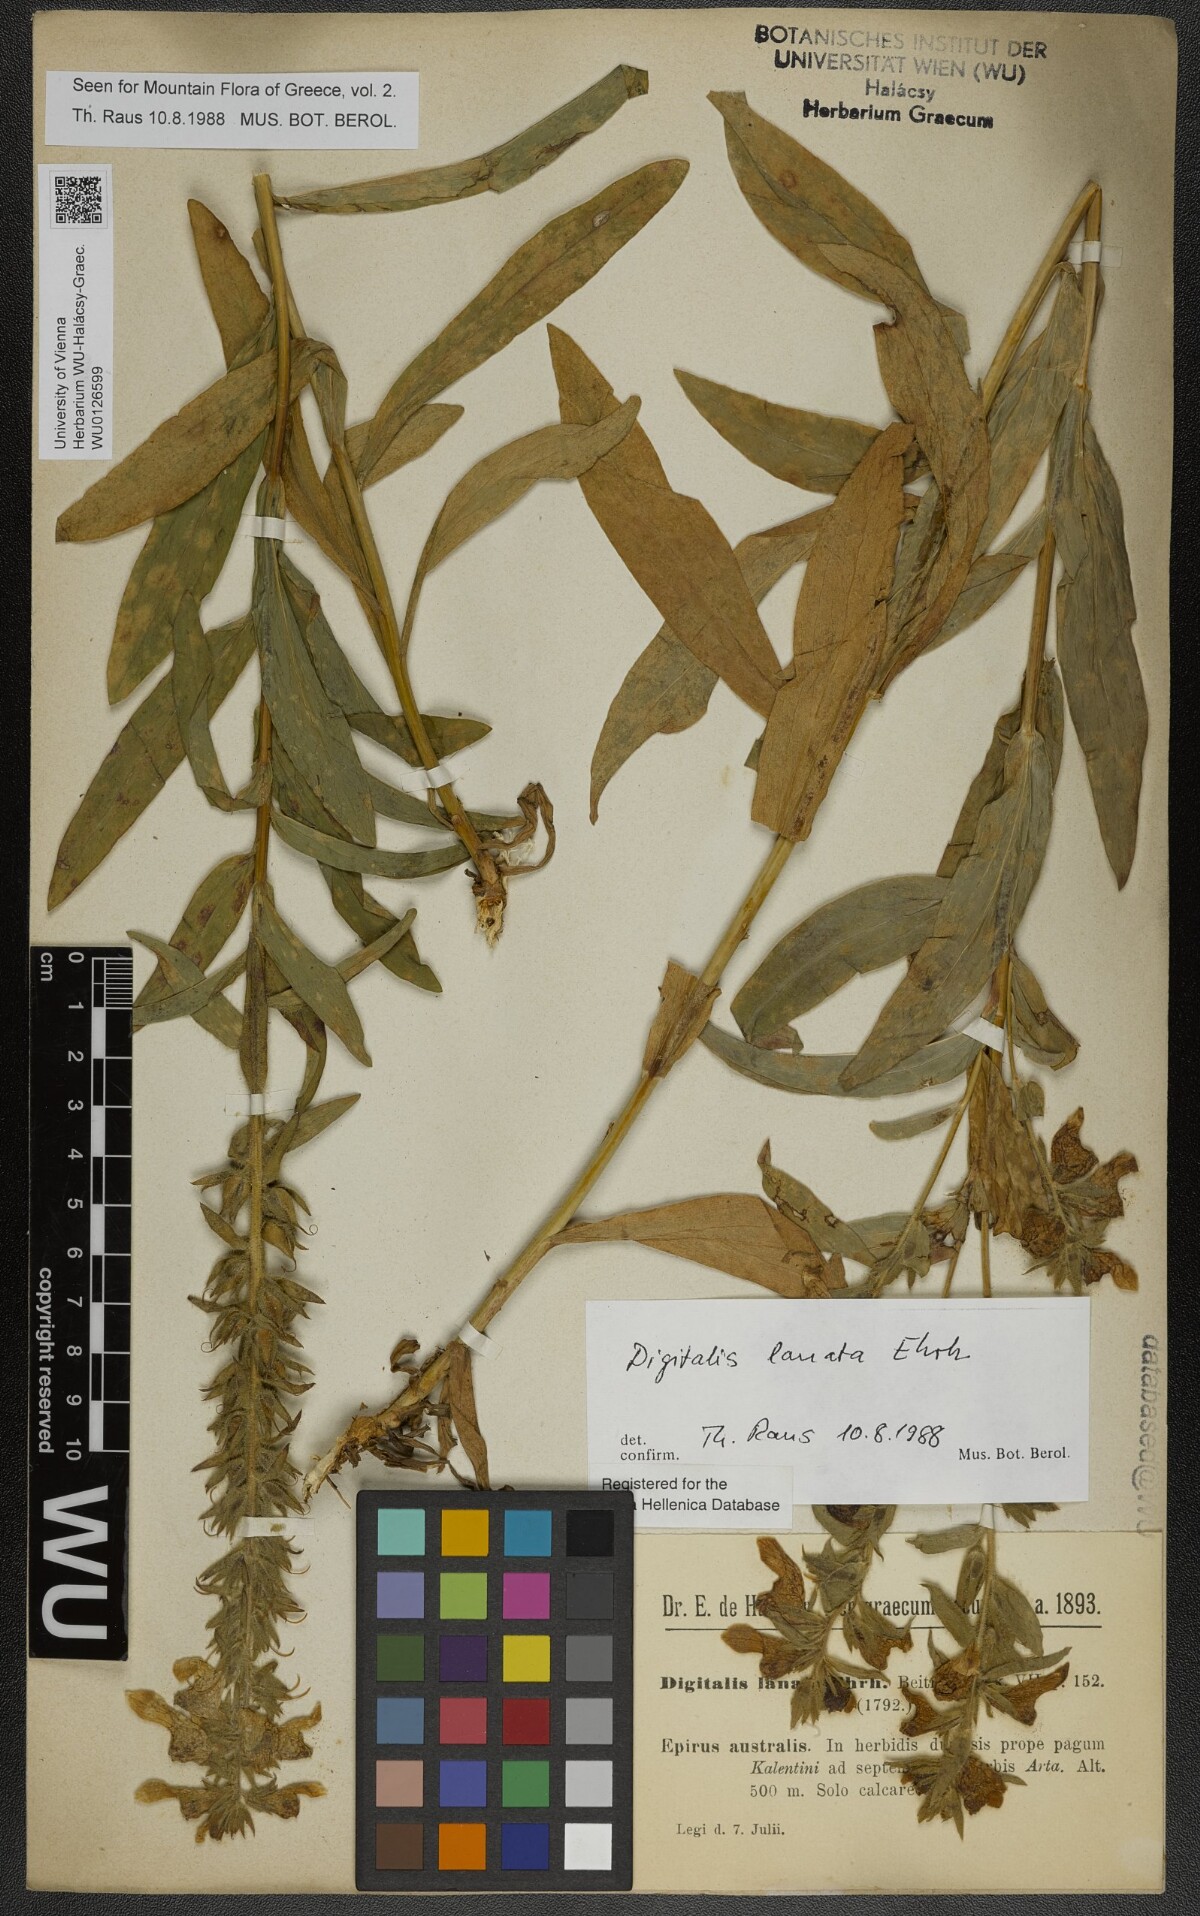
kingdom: Plantae
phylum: Tracheophyta
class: Magnoliopsida
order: Lamiales
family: Plantaginaceae
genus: Digitalis
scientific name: Digitalis lanata
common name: Grecian foxglove
